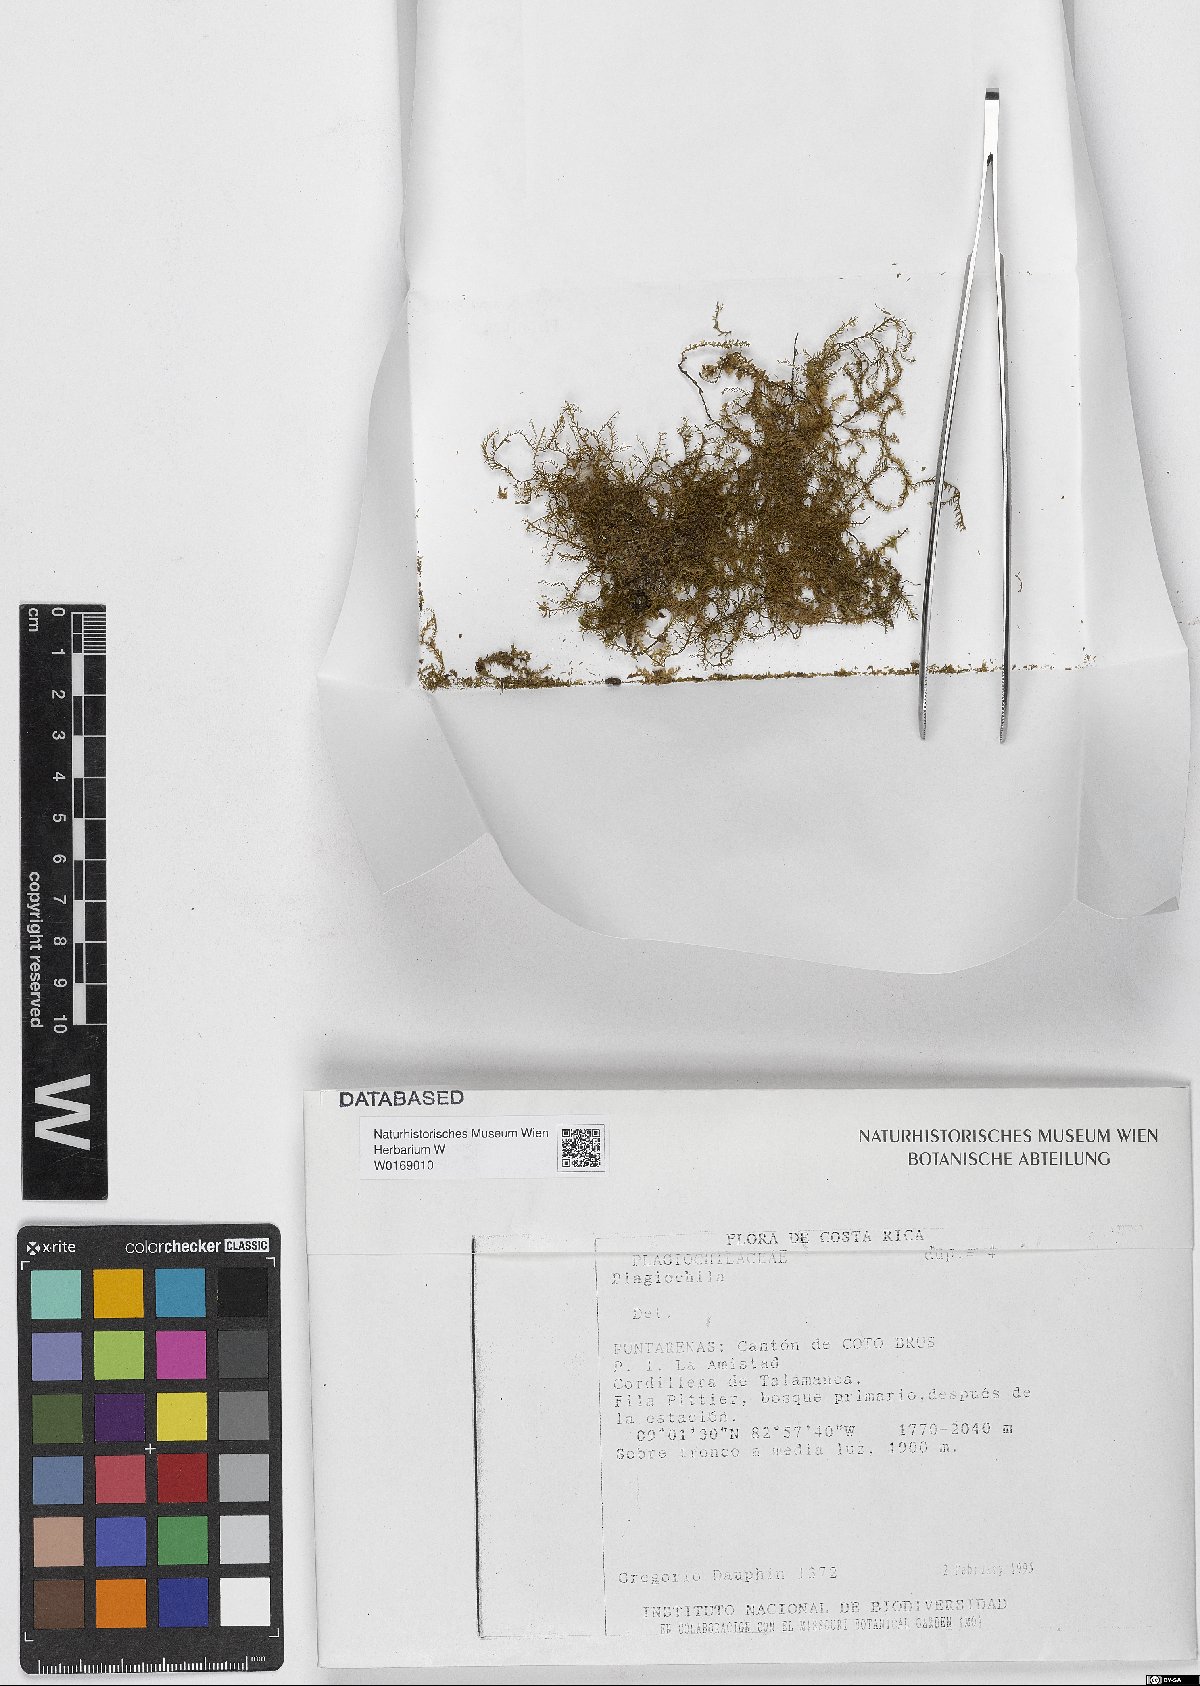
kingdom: Plantae
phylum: Marchantiophyta
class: Jungermanniopsida
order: Jungermanniales
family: Plagiochilaceae
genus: Plagiochila
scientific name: Plagiochila
